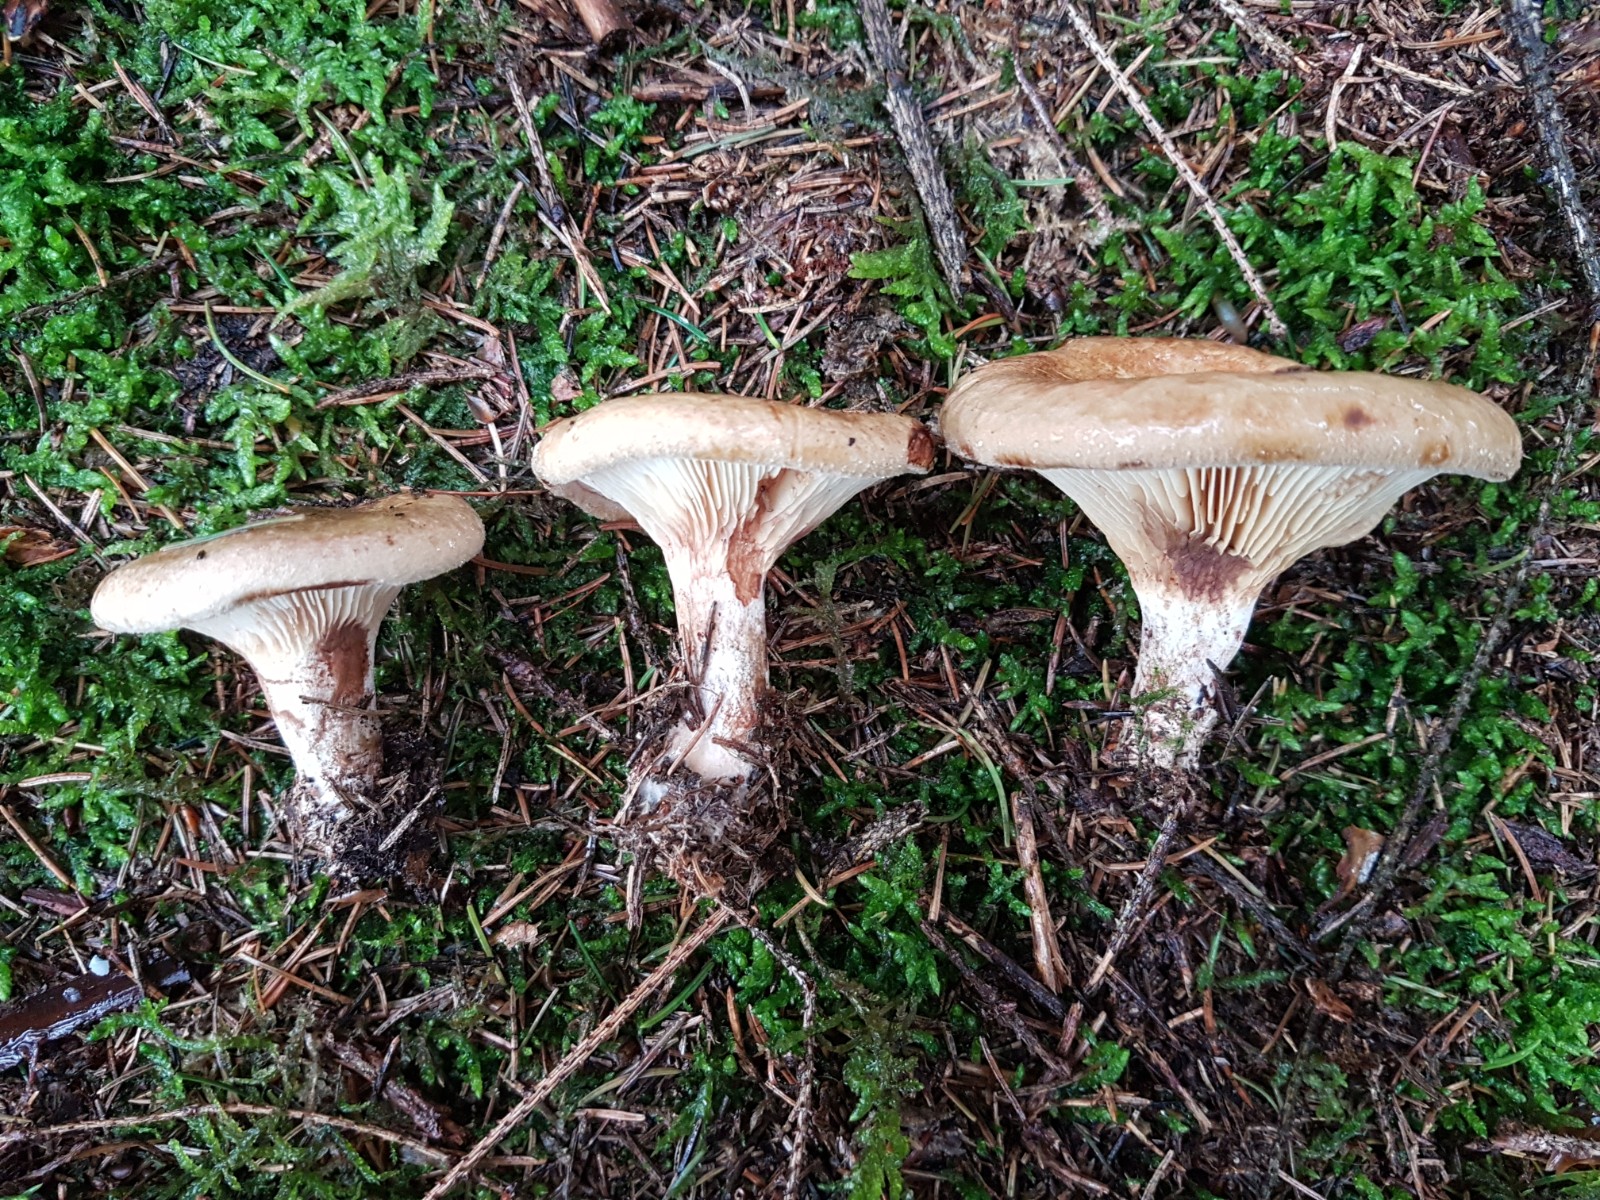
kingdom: Fungi
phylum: Basidiomycota
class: Agaricomycetes
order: Boletales
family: Paxillaceae
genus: Paxillus
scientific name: Paxillus involutus
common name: almindelig netbladhat
